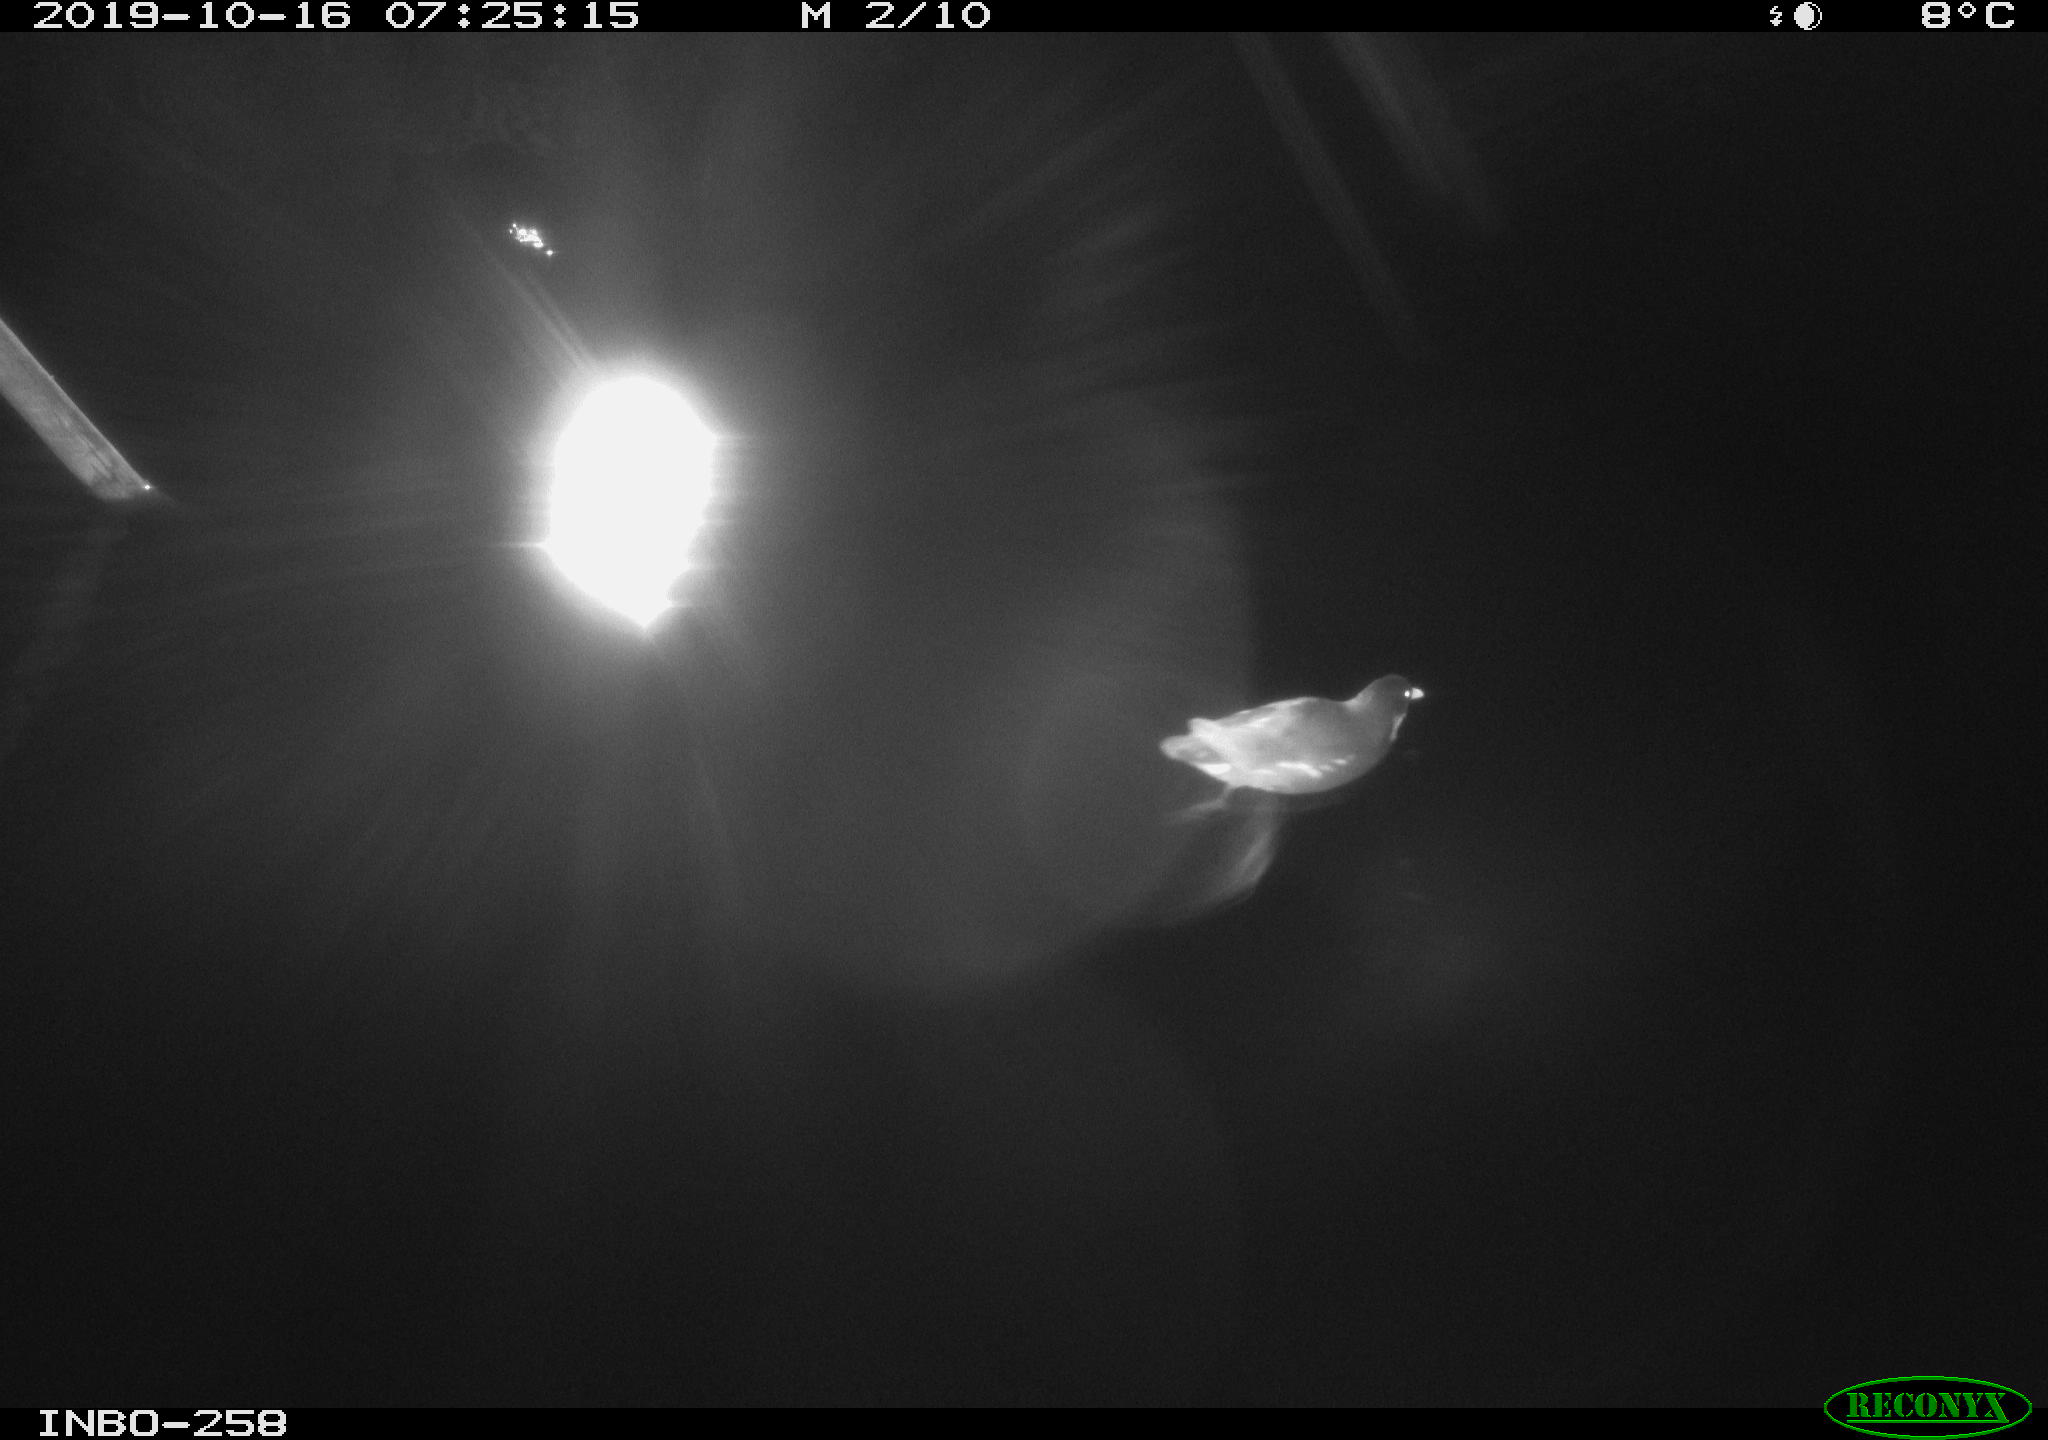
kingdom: Animalia
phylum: Chordata
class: Aves
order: Gruiformes
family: Rallidae
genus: Gallinula
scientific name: Gallinula chloropus
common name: Common moorhen
